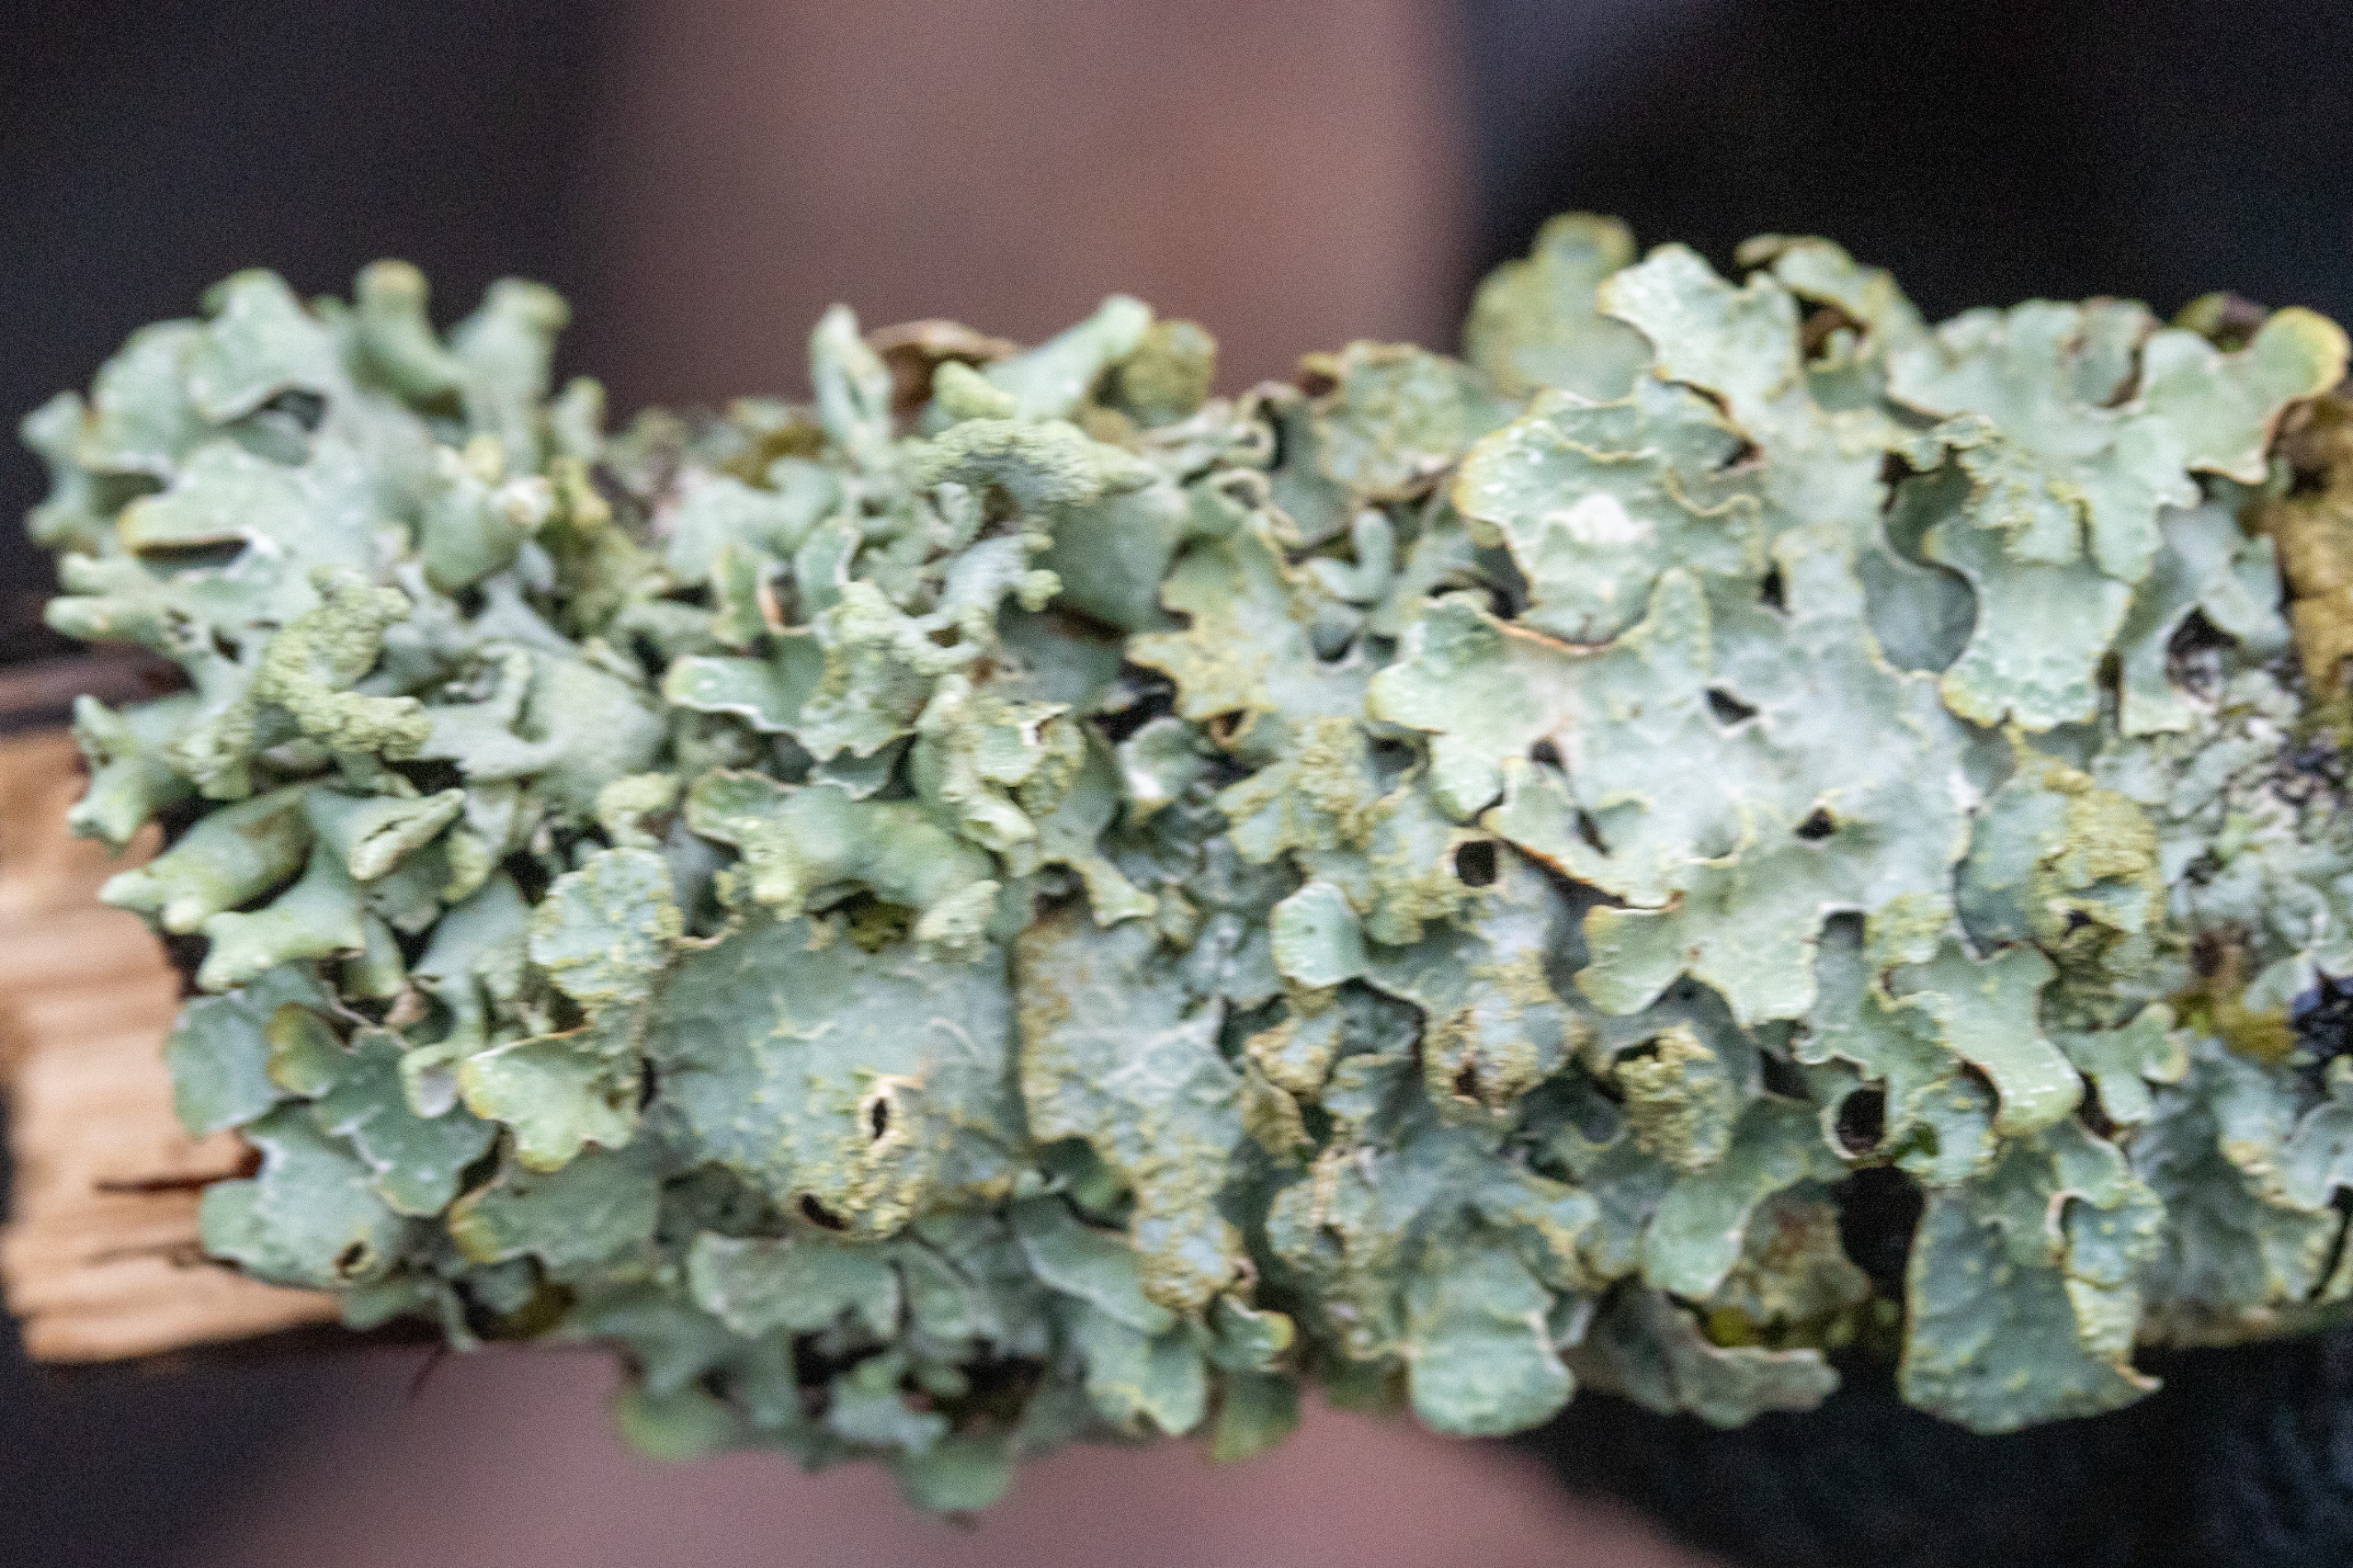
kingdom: Fungi
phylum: Ascomycota
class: Lecanoromycetes
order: Lecanorales
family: Parmeliaceae
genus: Parmelia
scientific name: Parmelia sulcata
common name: Rynket skållav
